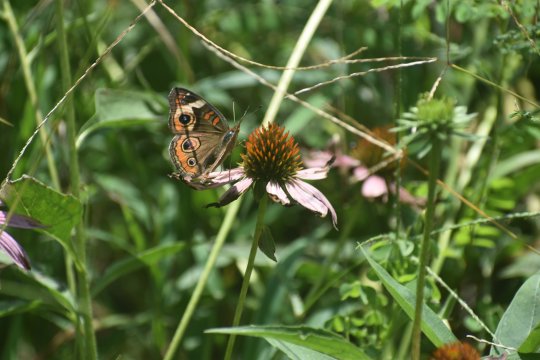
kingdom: Animalia
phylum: Arthropoda
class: Insecta
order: Lepidoptera
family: Nymphalidae
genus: Junonia
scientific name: Junonia coenia
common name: Common Buckeye
